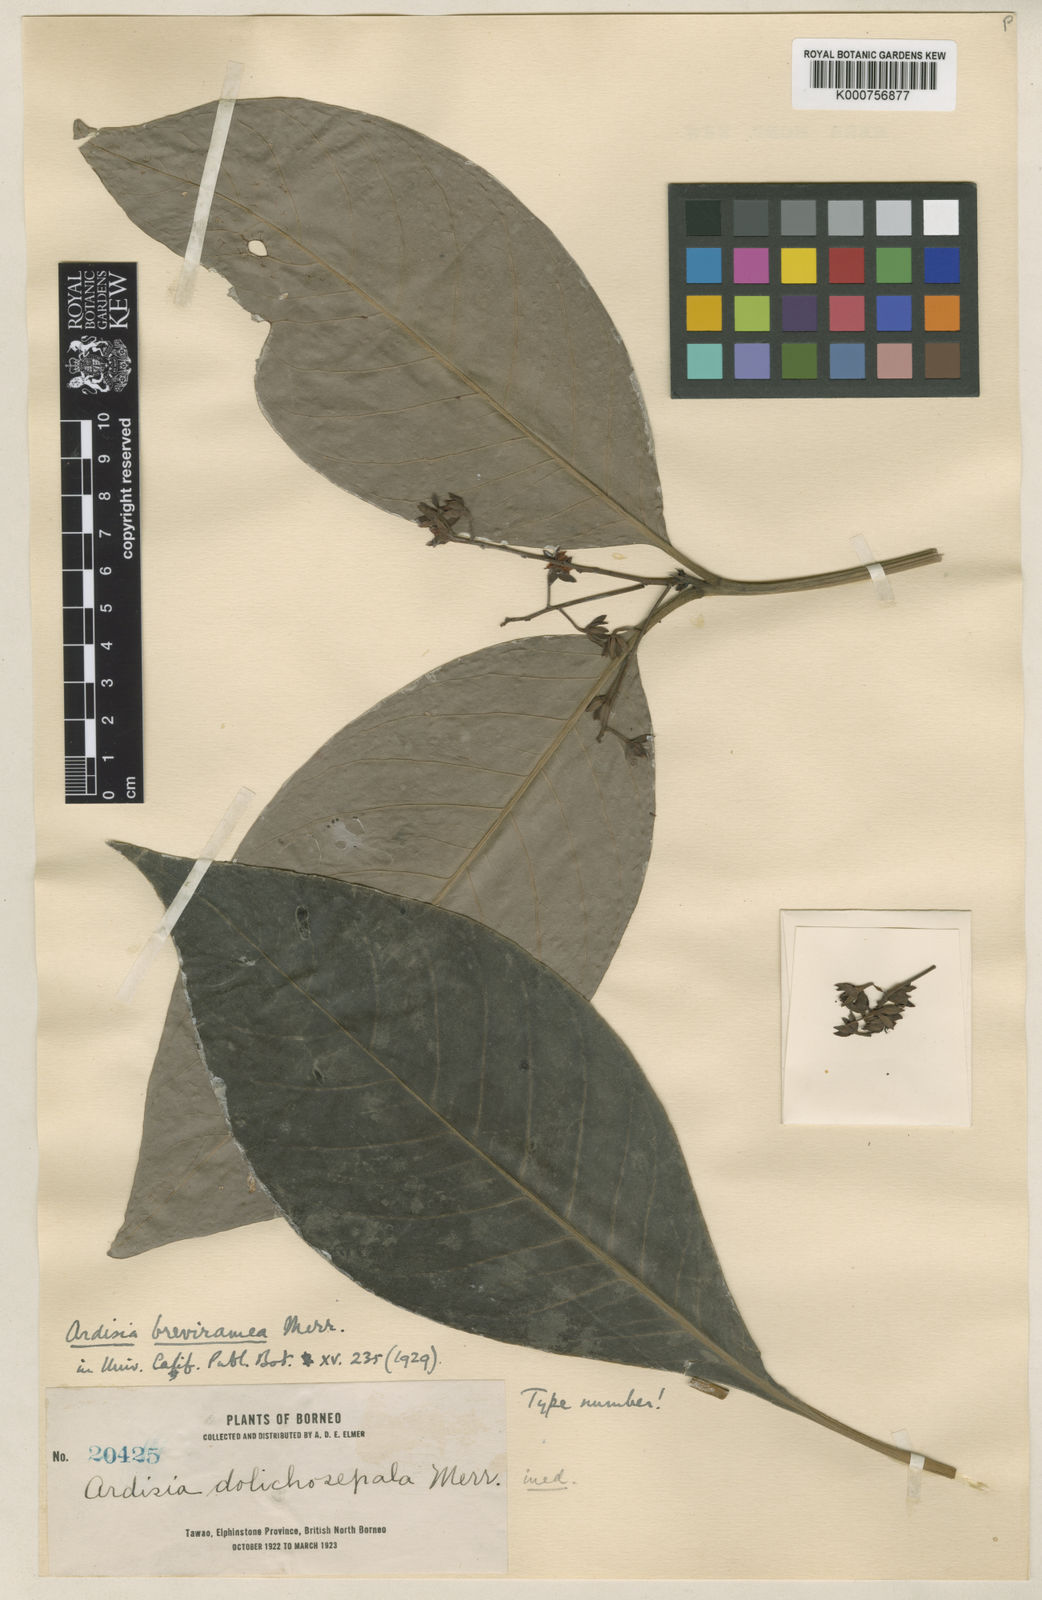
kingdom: Plantae
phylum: Tracheophyta
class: Magnoliopsida
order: Ericales
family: Primulaceae
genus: Ardisia
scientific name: Ardisia breviramea
